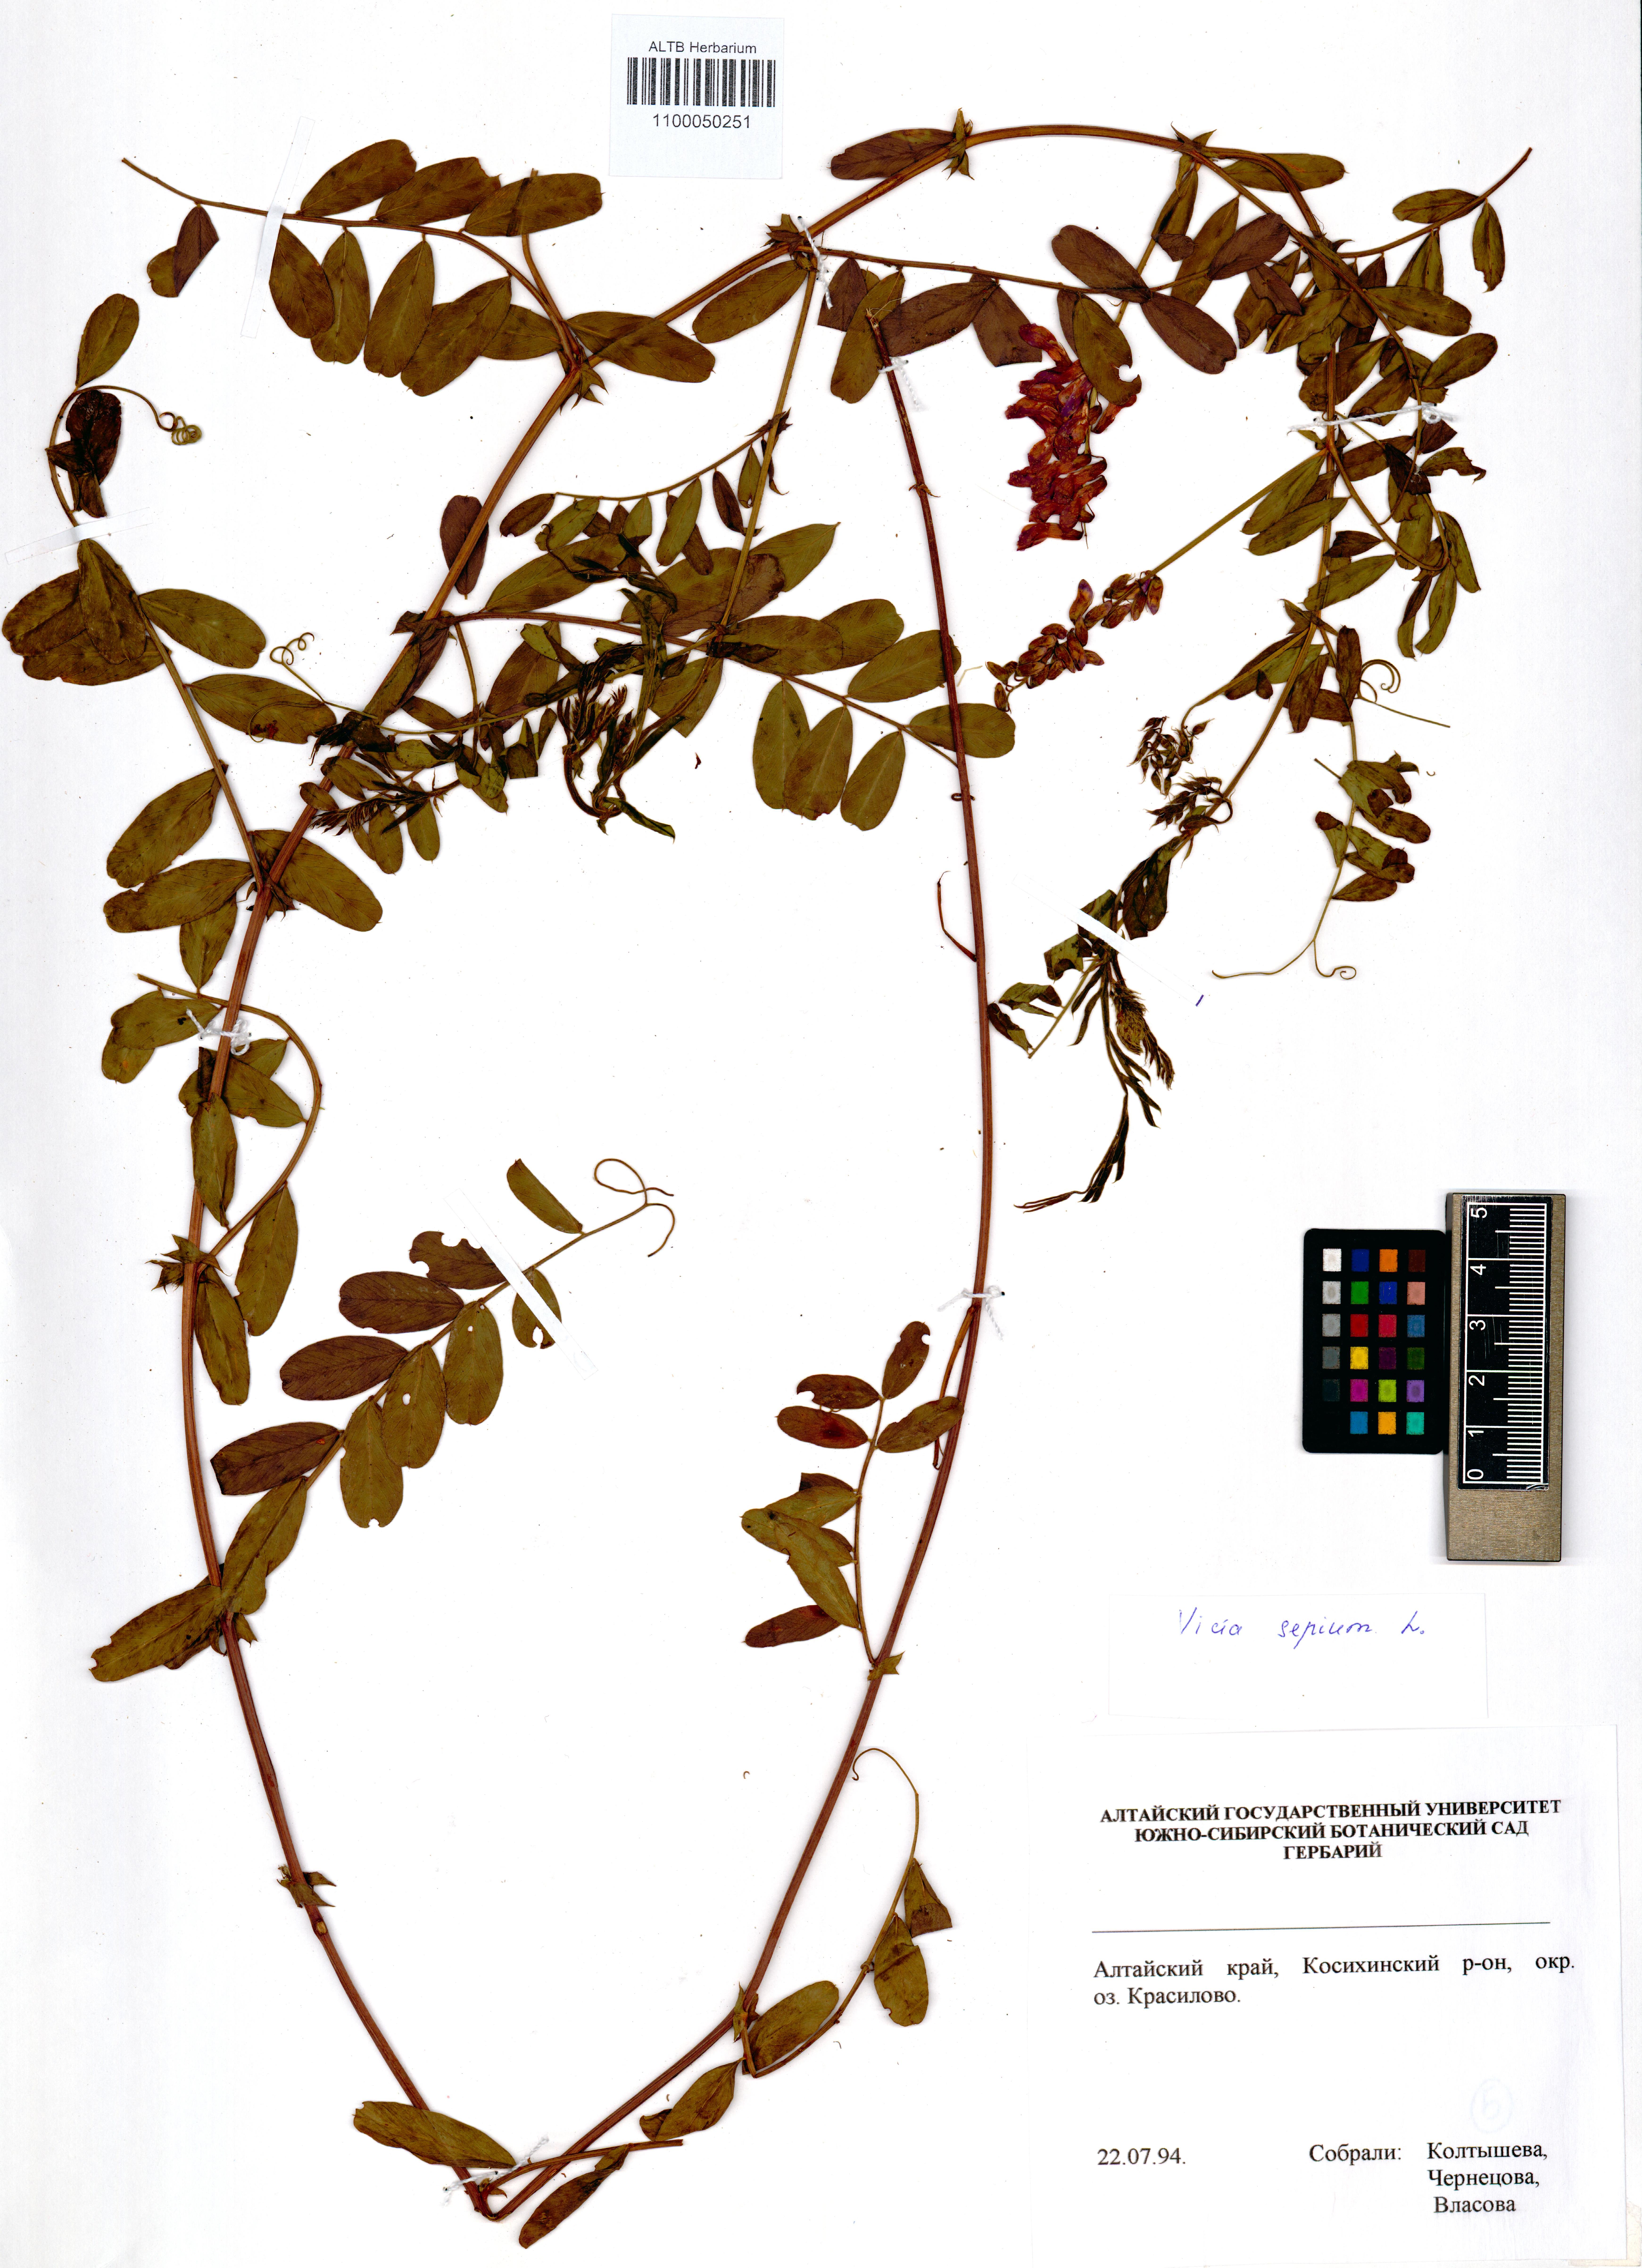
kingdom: Plantae
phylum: Tracheophyta
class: Magnoliopsida
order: Fabales
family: Fabaceae
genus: Vicia
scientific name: Vicia sepium
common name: Bush vetch
